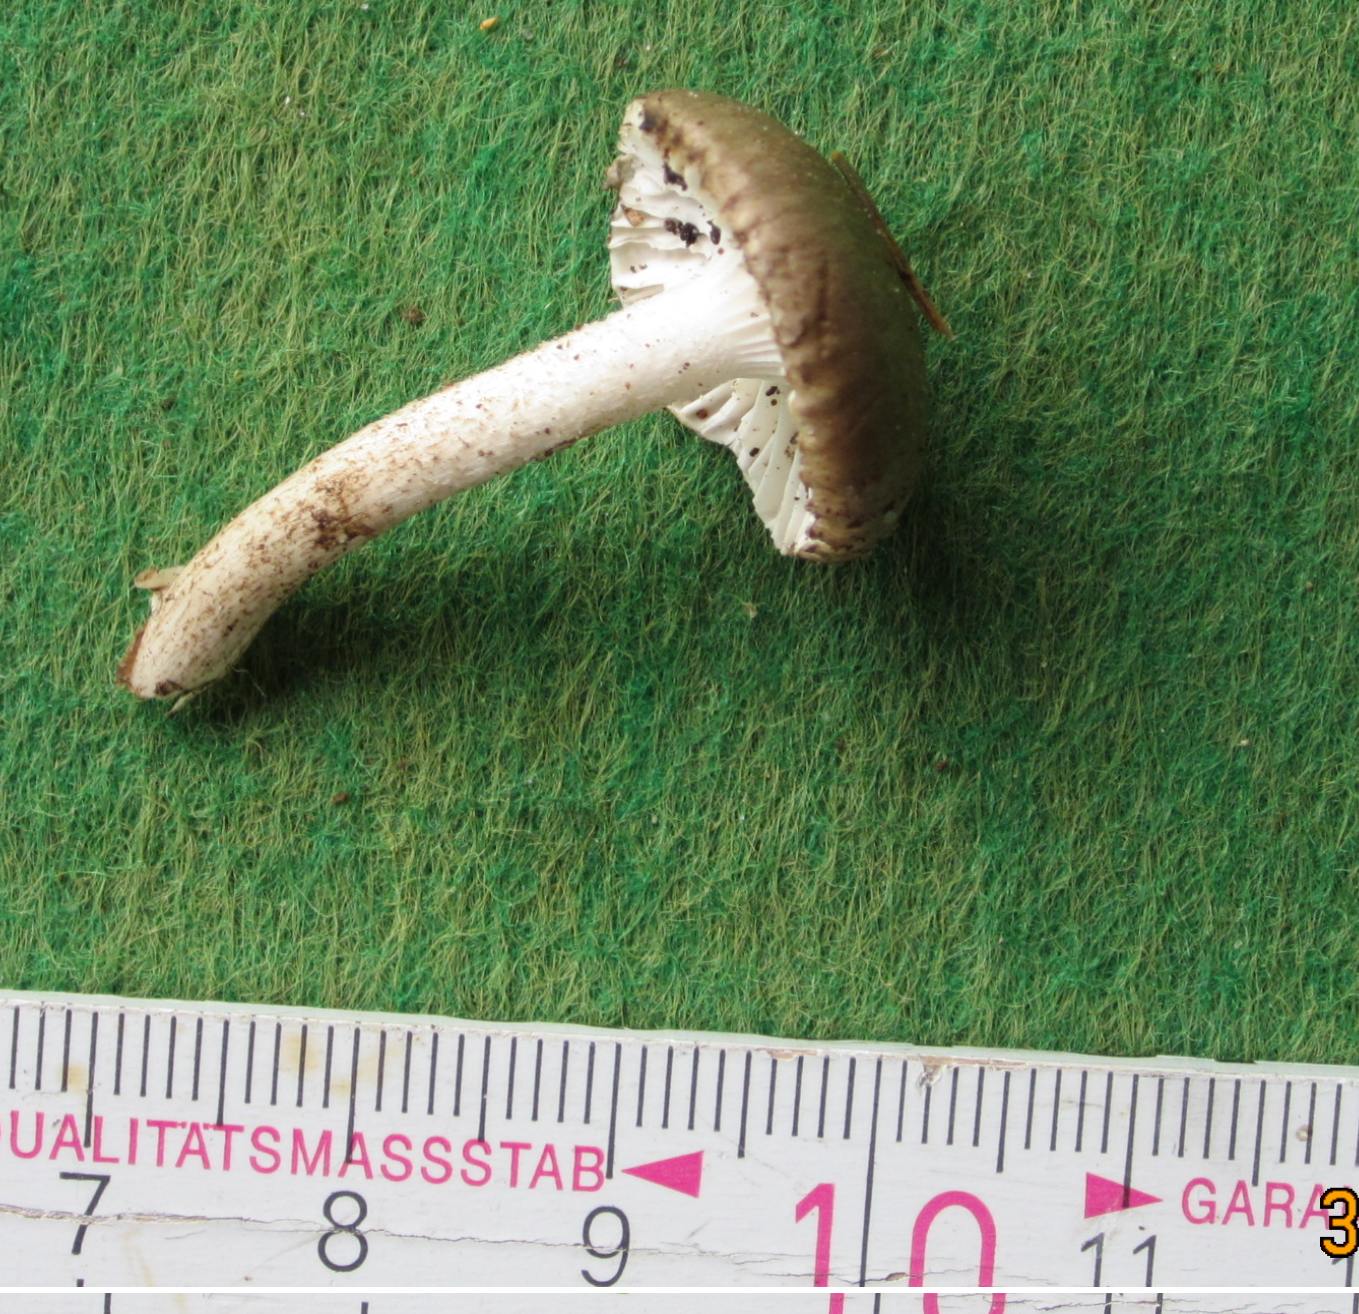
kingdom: Fungi
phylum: Basidiomycota
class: Agaricomycetes
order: Agaricales
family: Hygrophoraceae
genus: Hygrophorus
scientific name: Hygrophorus pustulatus
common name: mørkprikket sneglehat
